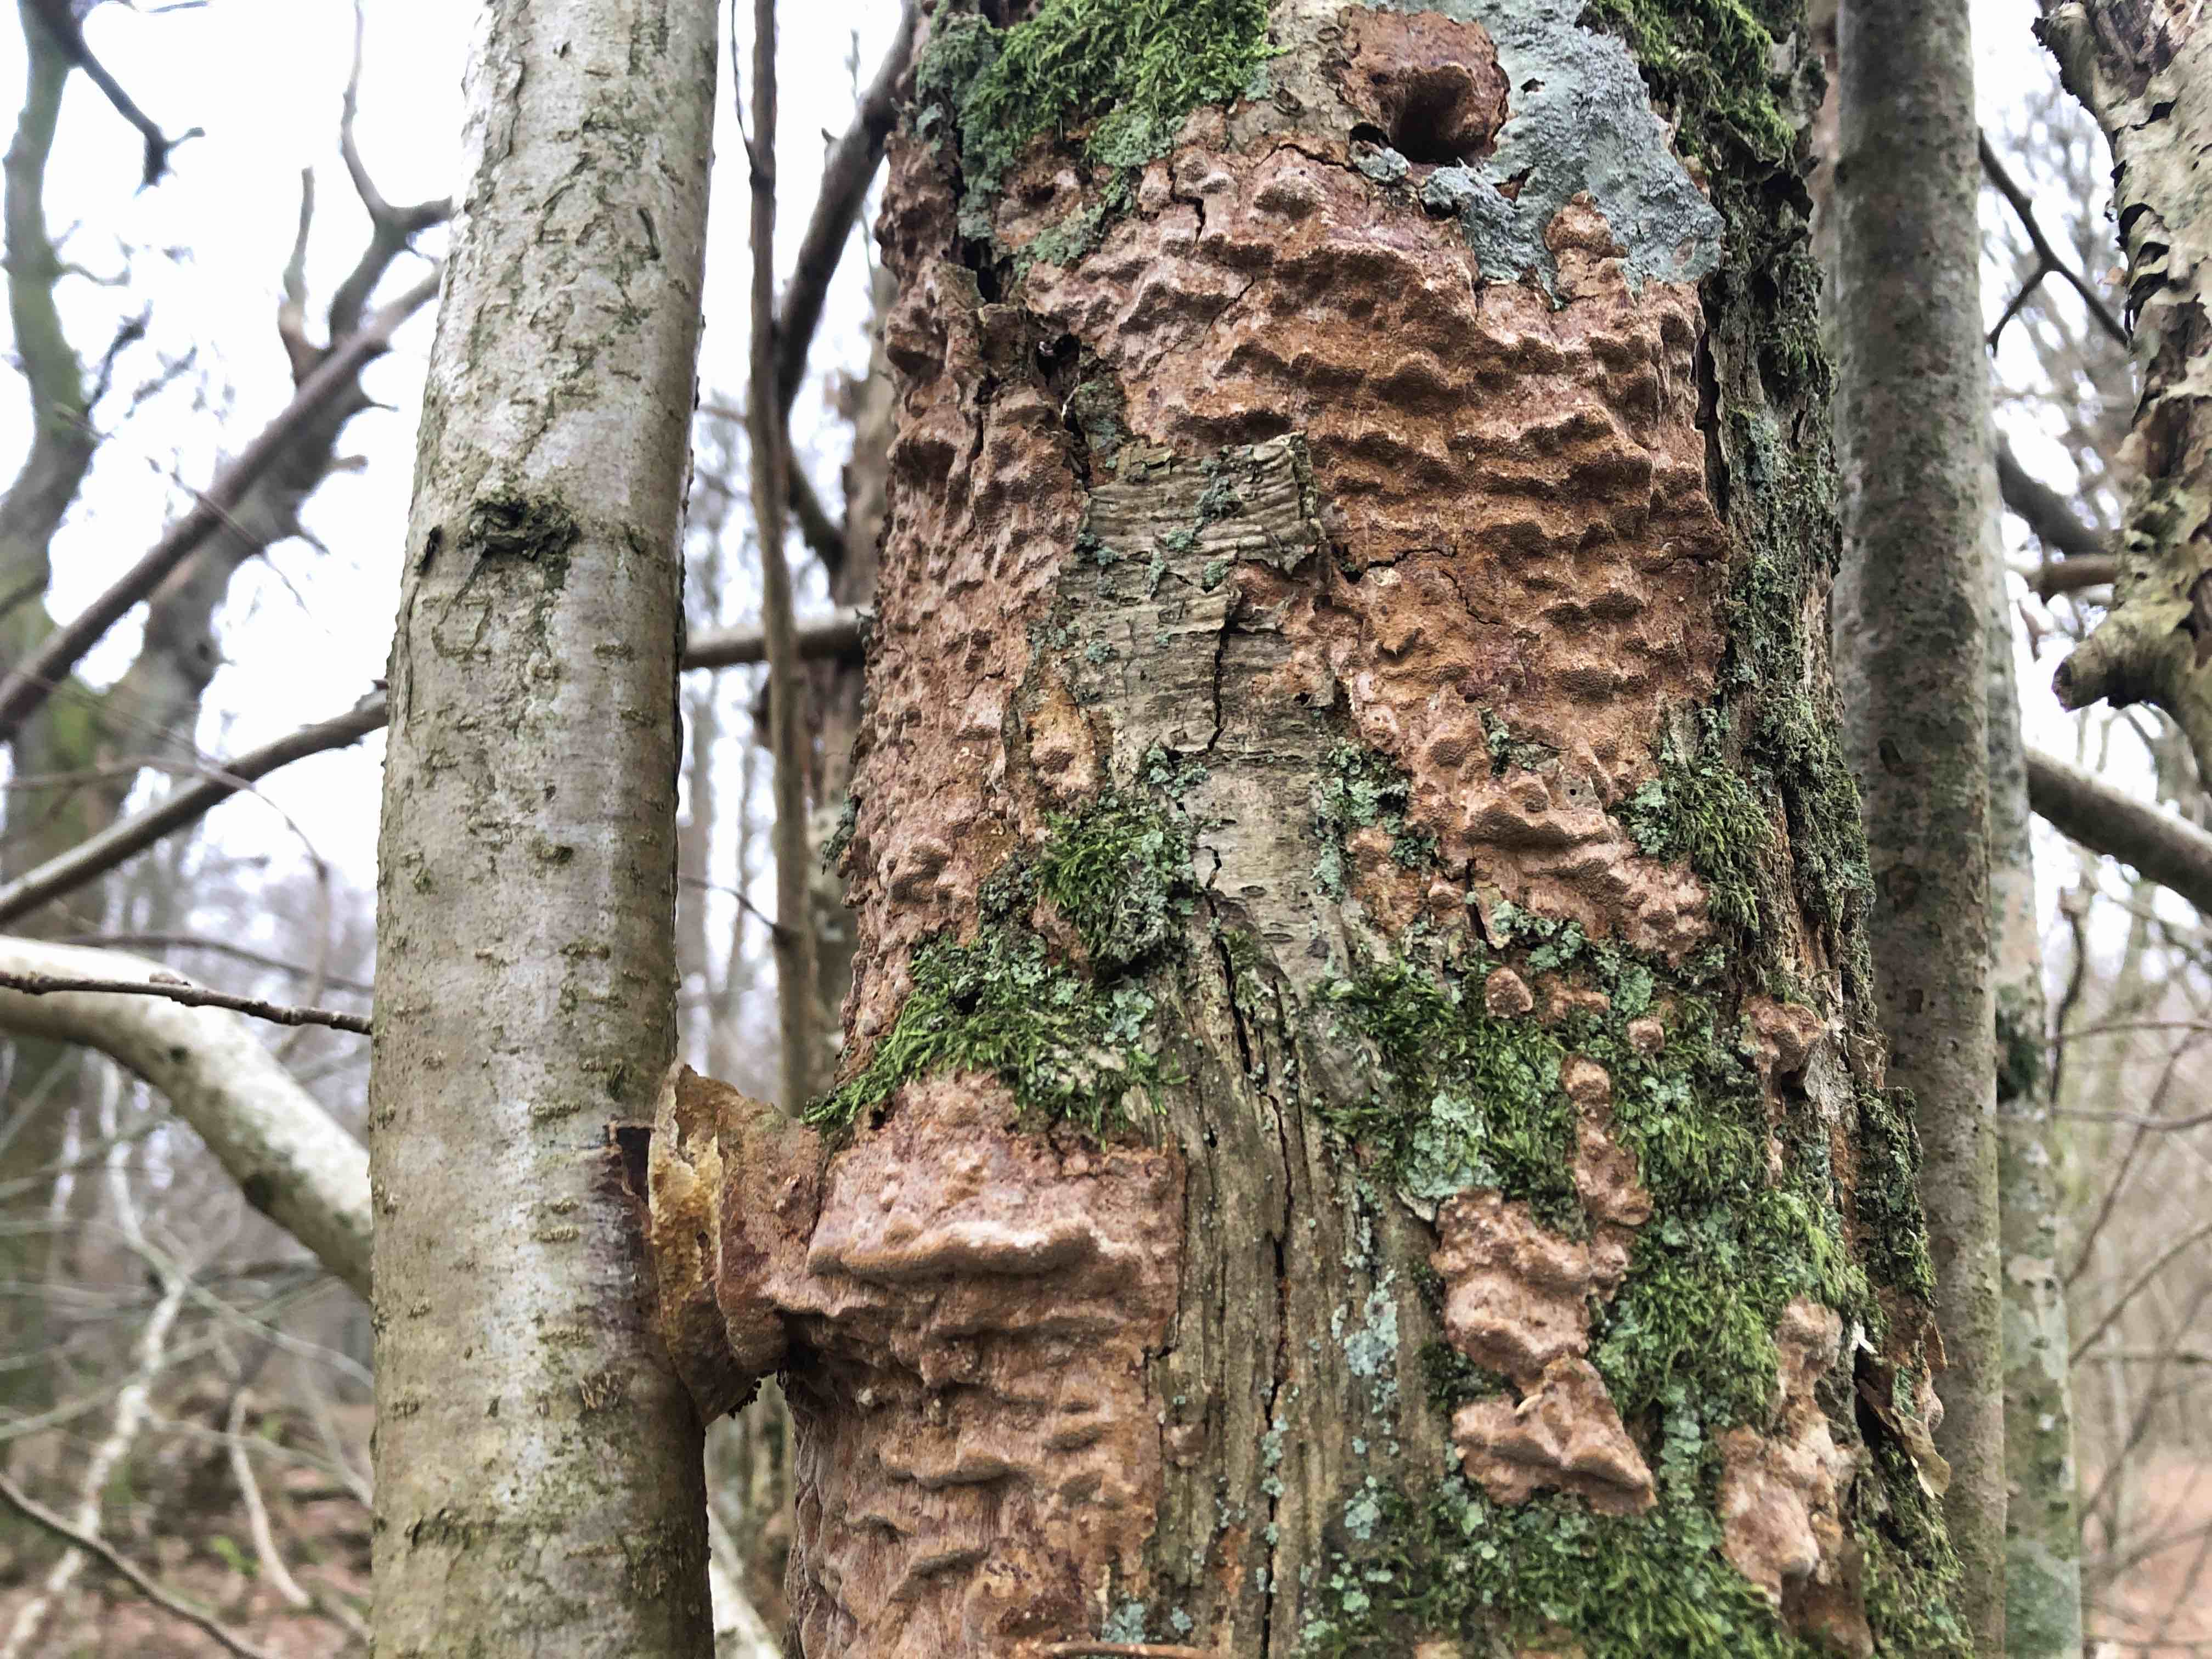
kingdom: Fungi
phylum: Basidiomycota
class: Agaricomycetes
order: Hymenochaetales
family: Hymenochaetaceae
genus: Fuscoporia
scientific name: Fuscoporia ferrea
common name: skorpe-ildporesvamp
